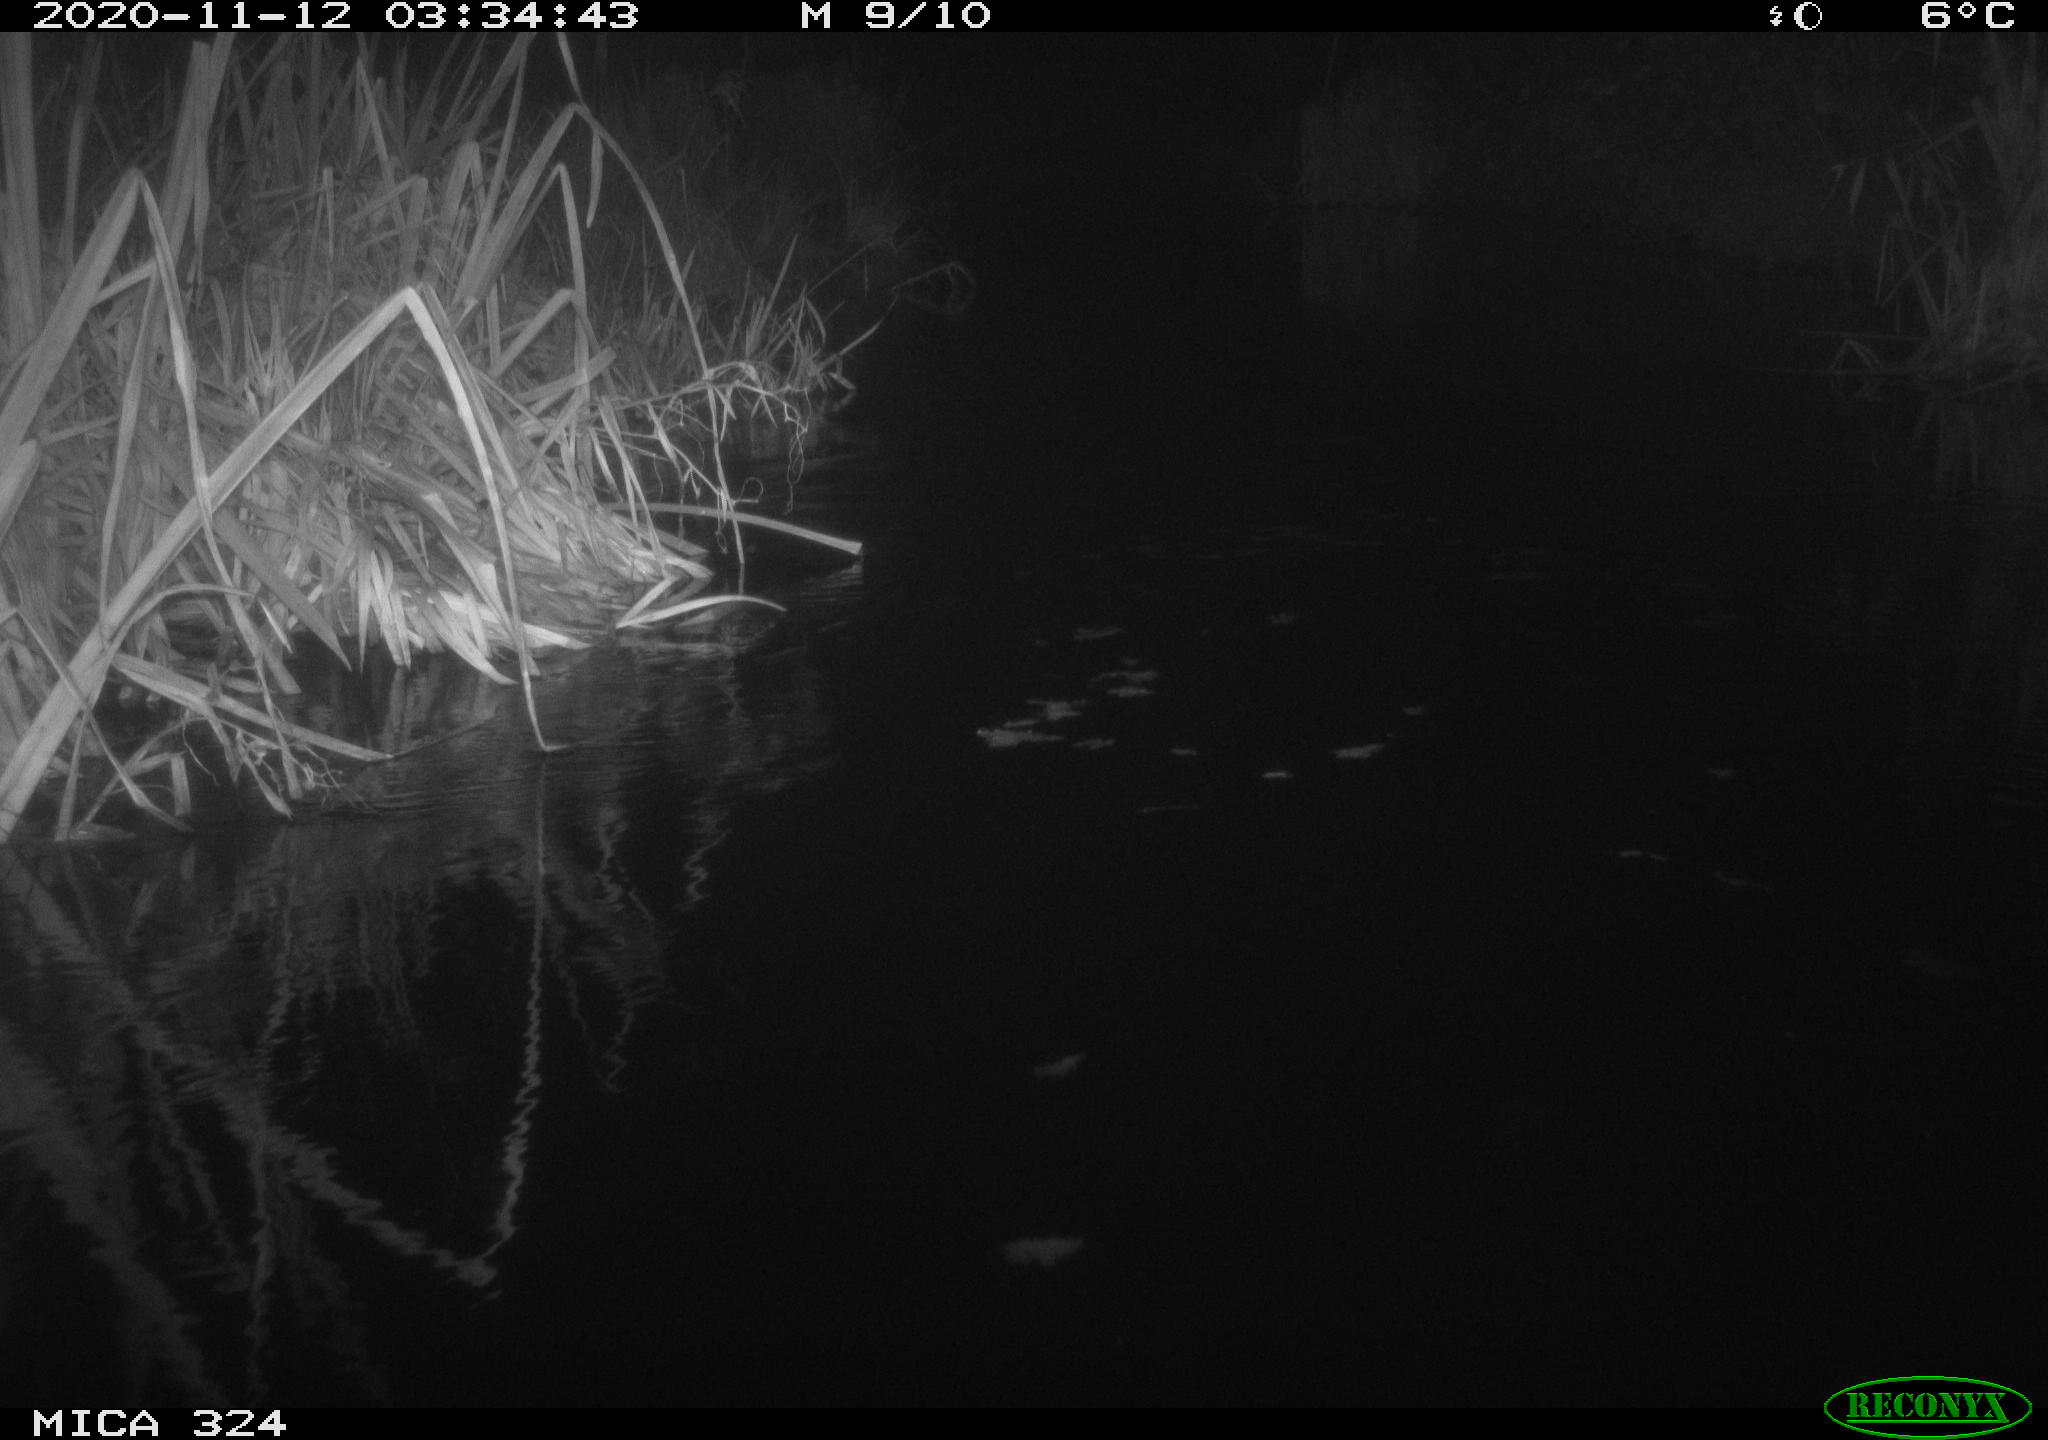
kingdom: Animalia
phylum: Chordata
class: Mammalia
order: Rodentia
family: Cricetidae
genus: Ondatra
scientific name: Ondatra zibethicus
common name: Muskrat
